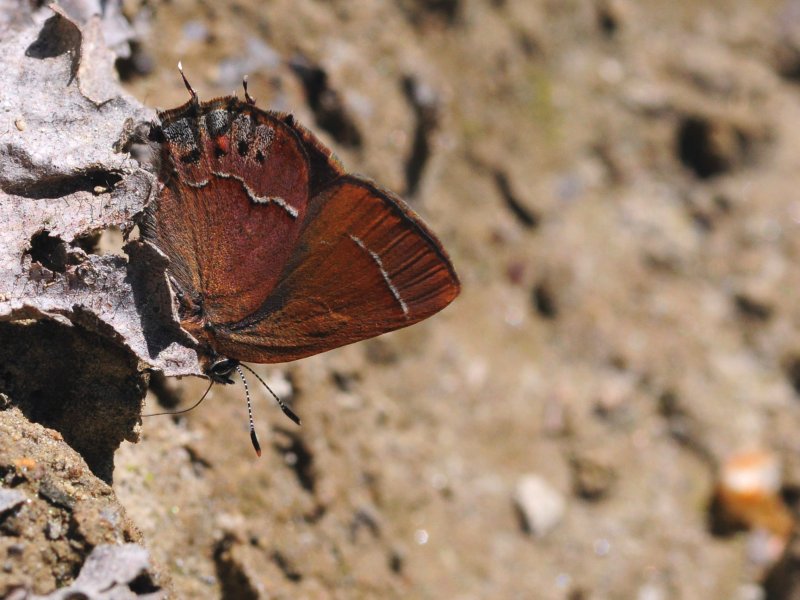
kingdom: Animalia
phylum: Arthropoda
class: Insecta
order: Lepidoptera
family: Lycaenidae
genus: Mitoura
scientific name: Mitoura nelsoni
